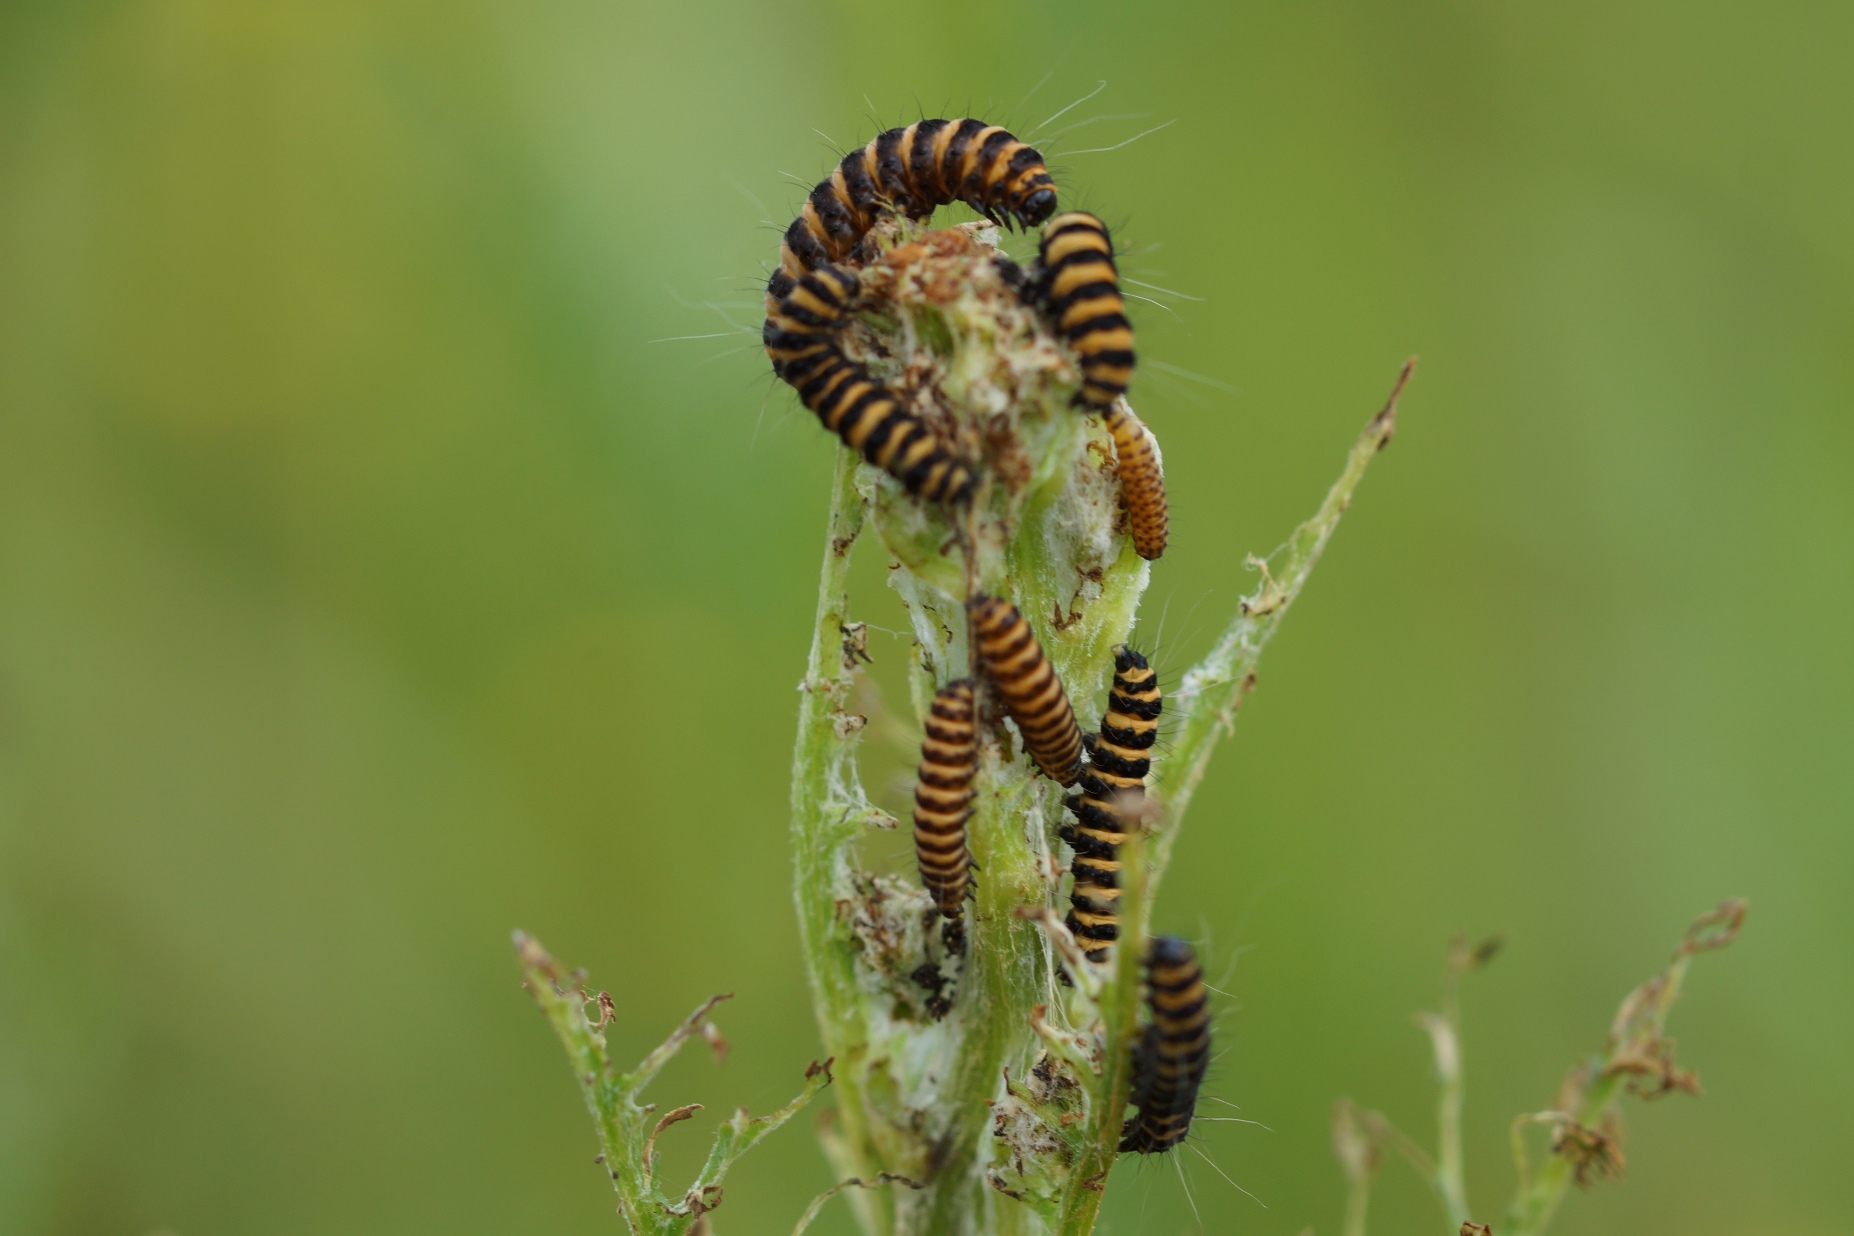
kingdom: Animalia
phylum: Arthropoda
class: Insecta
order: Lepidoptera
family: Erebidae
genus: Tyria
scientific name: Tyria jacobaeae
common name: Blodplet
